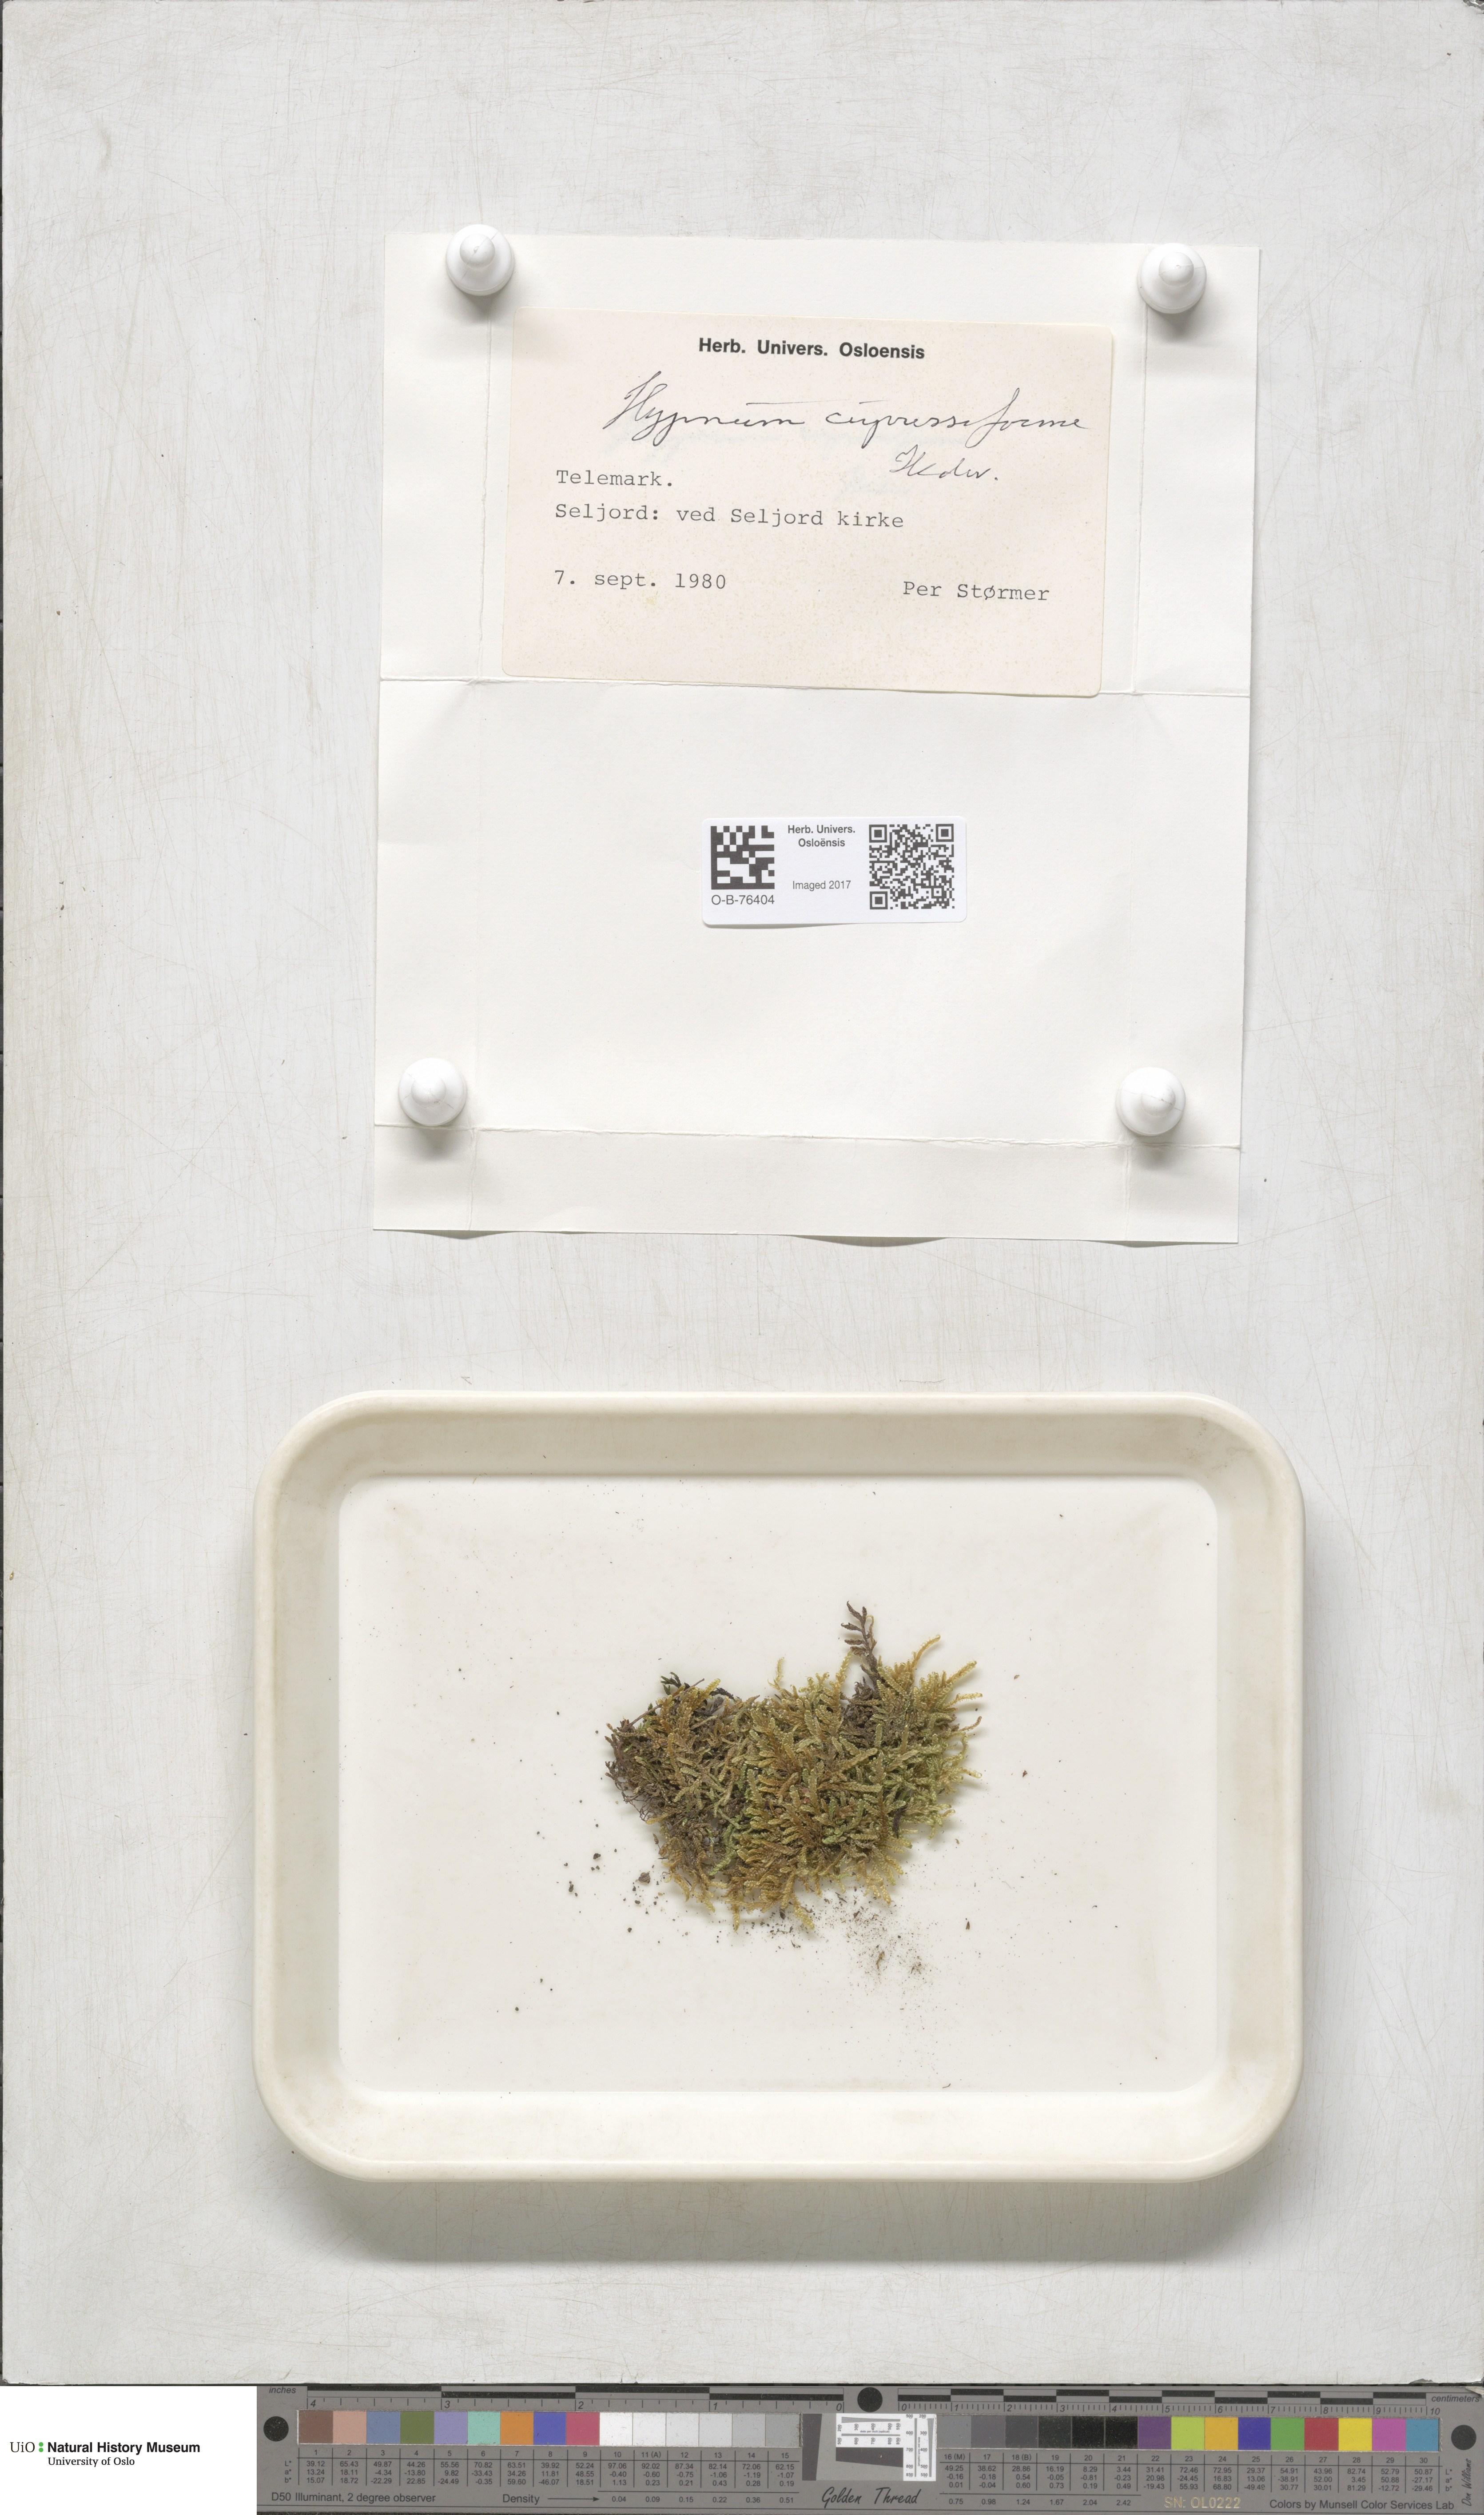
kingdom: Plantae
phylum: Bryophyta
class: Bryopsida
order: Hypnales
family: Hypnaceae
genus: Hypnum
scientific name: Hypnum cupressiforme
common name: Cypress-leaved plait-moss
